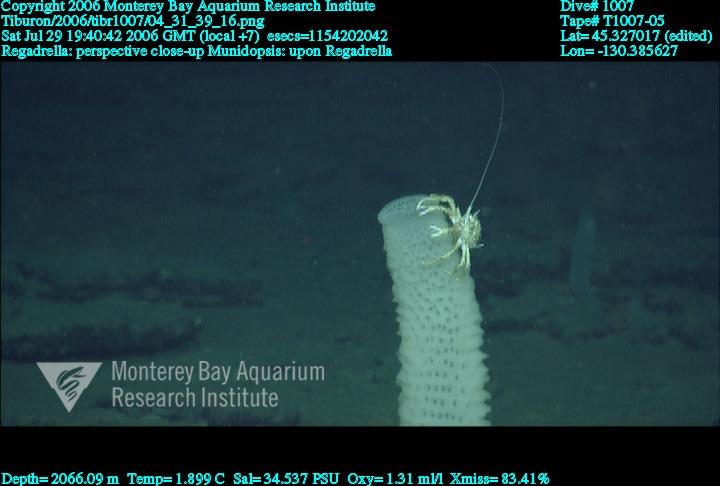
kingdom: Animalia
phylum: Porifera
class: Hexactinellida
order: Lyssacinosida
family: Euplectellidae
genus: Regadrella
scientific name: Regadrella
